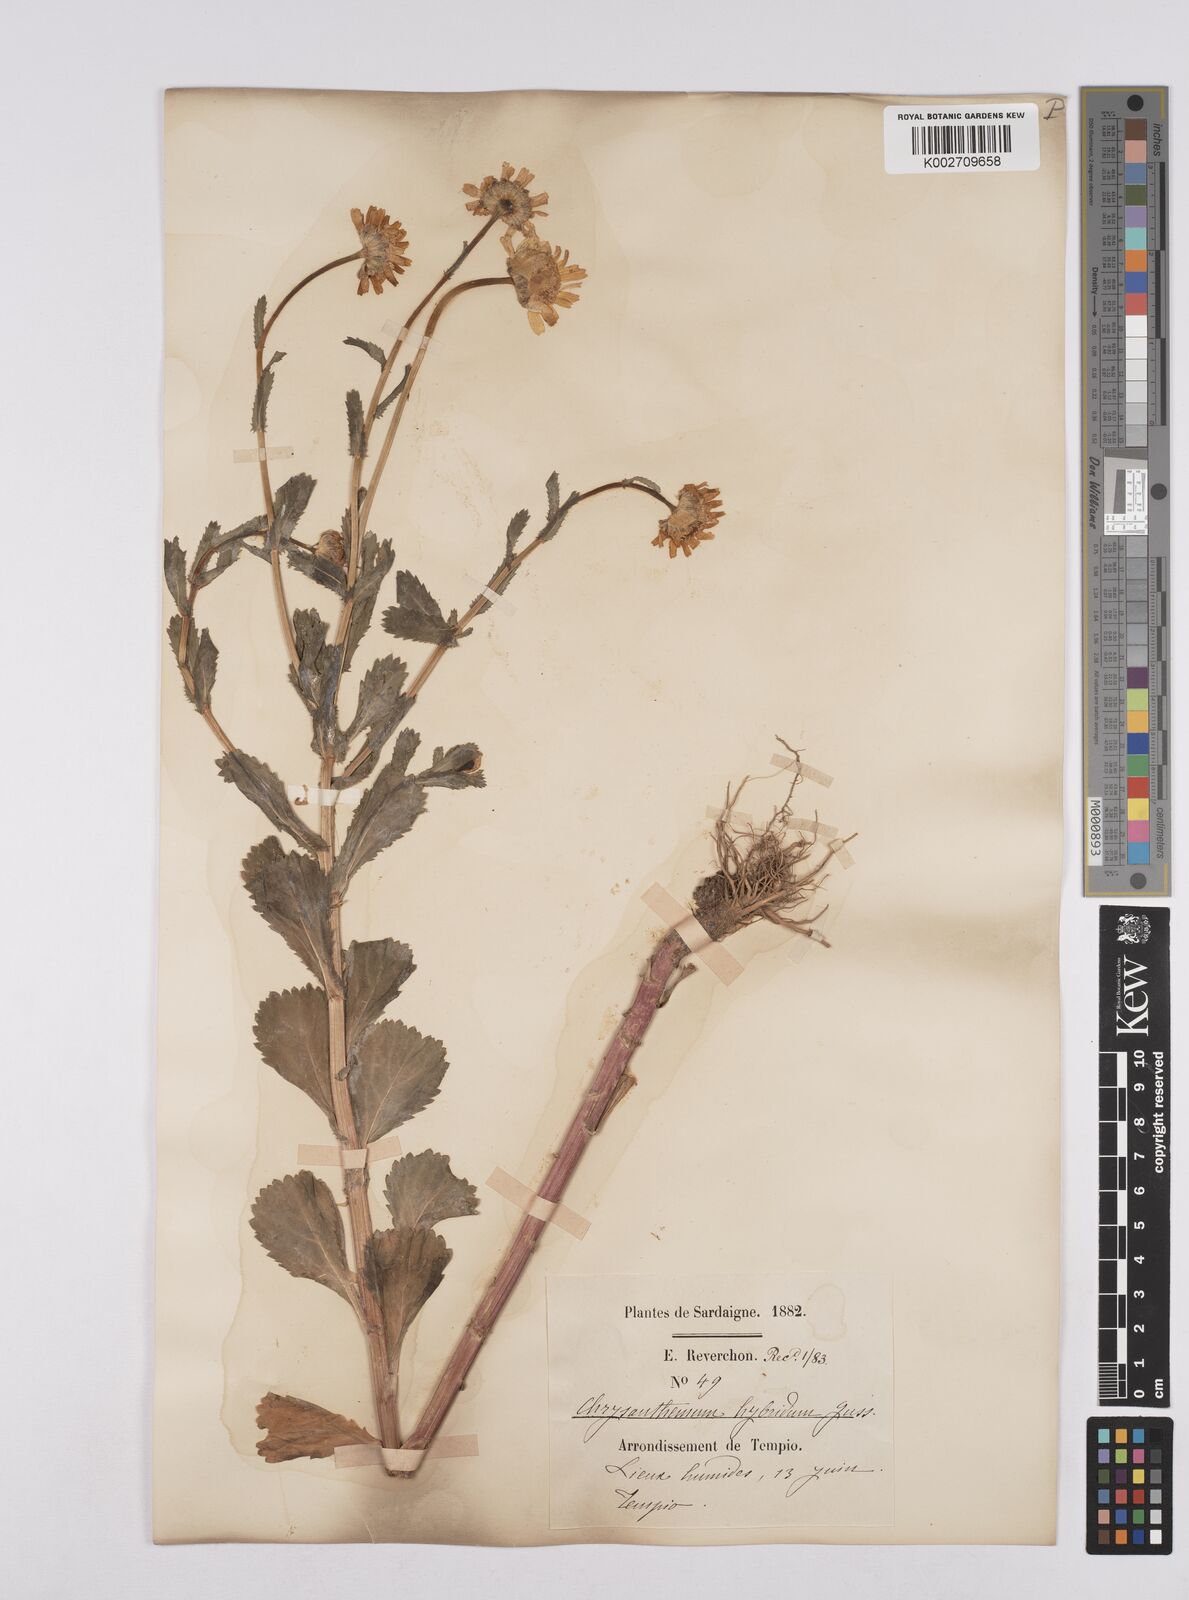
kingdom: Plantae
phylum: Tracheophyta
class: Magnoliopsida
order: Asterales
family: Asteraceae
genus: Coleostephus
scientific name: Coleostephus paludosus
